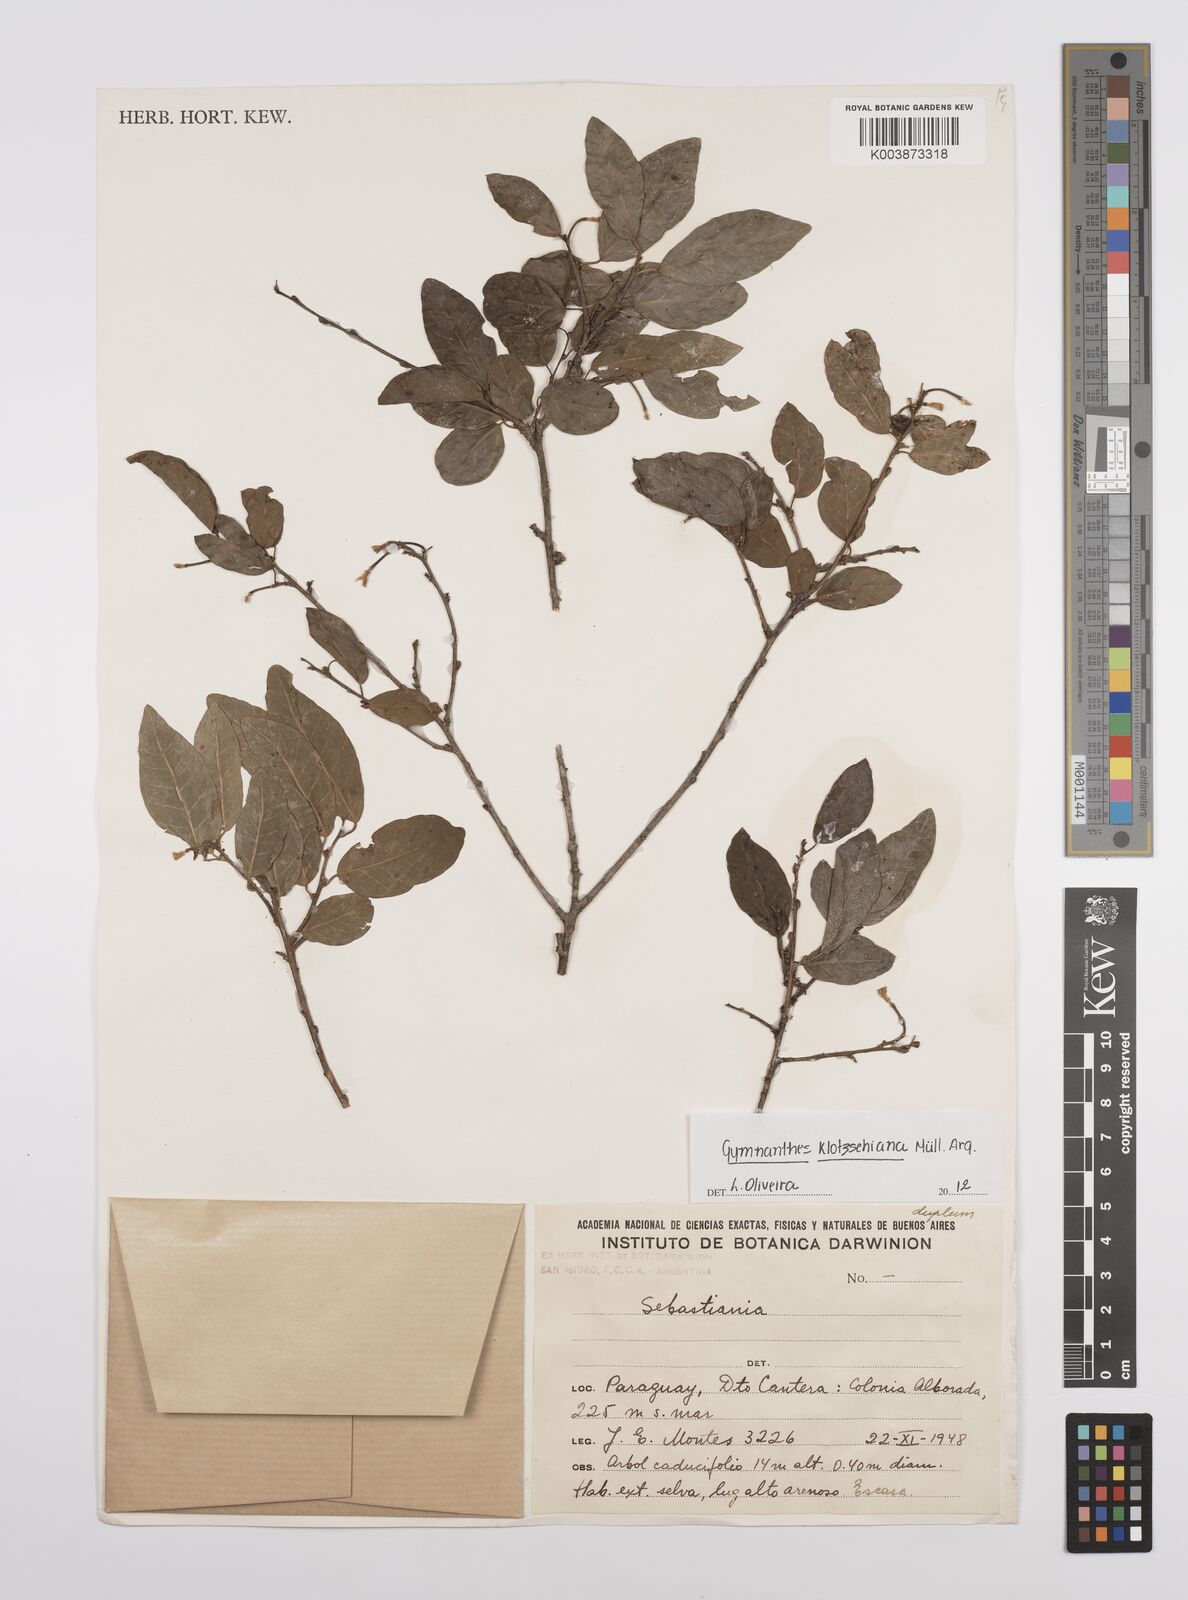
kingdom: Plantae
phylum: Tracheophyta
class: Magnoliopsida
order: Malpighiales
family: Euphorbiaceae
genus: Sebastiania
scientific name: Sebastiania klotzschiana
